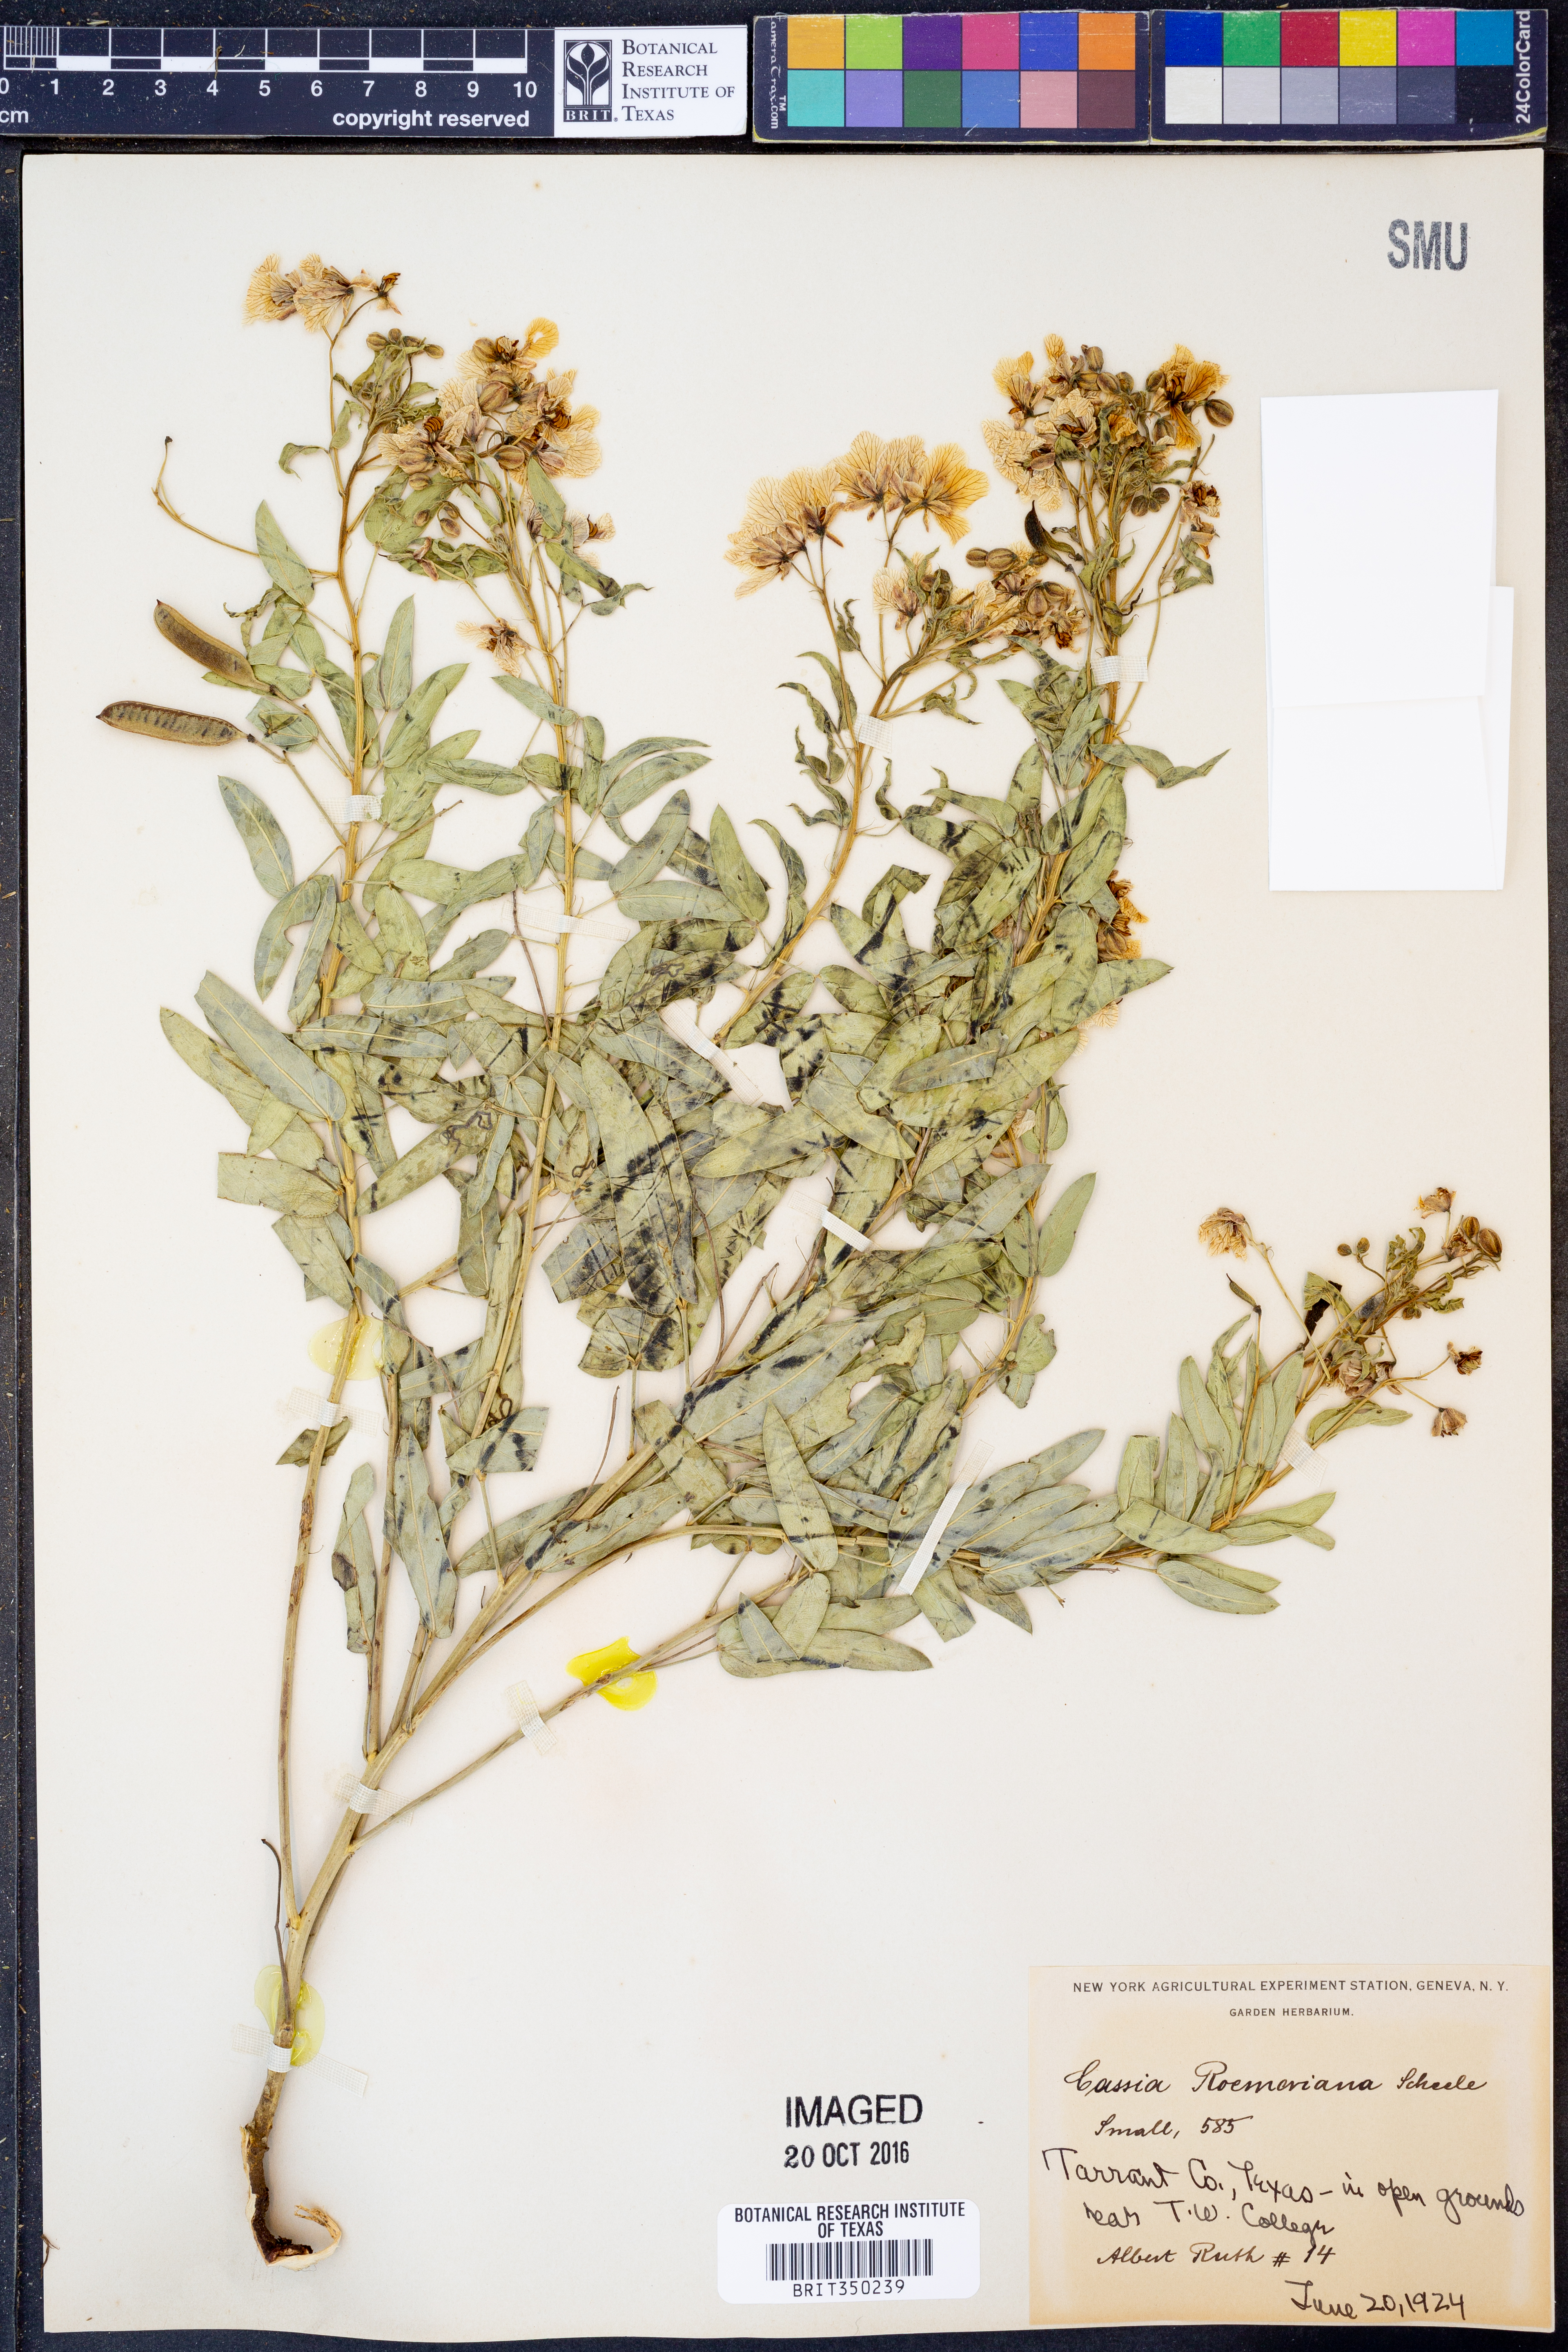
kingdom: Plantae
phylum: Tracheophyta
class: Magnoliopsida
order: Fabales
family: Fabaceae
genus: Senna
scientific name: Senna roemeriana
